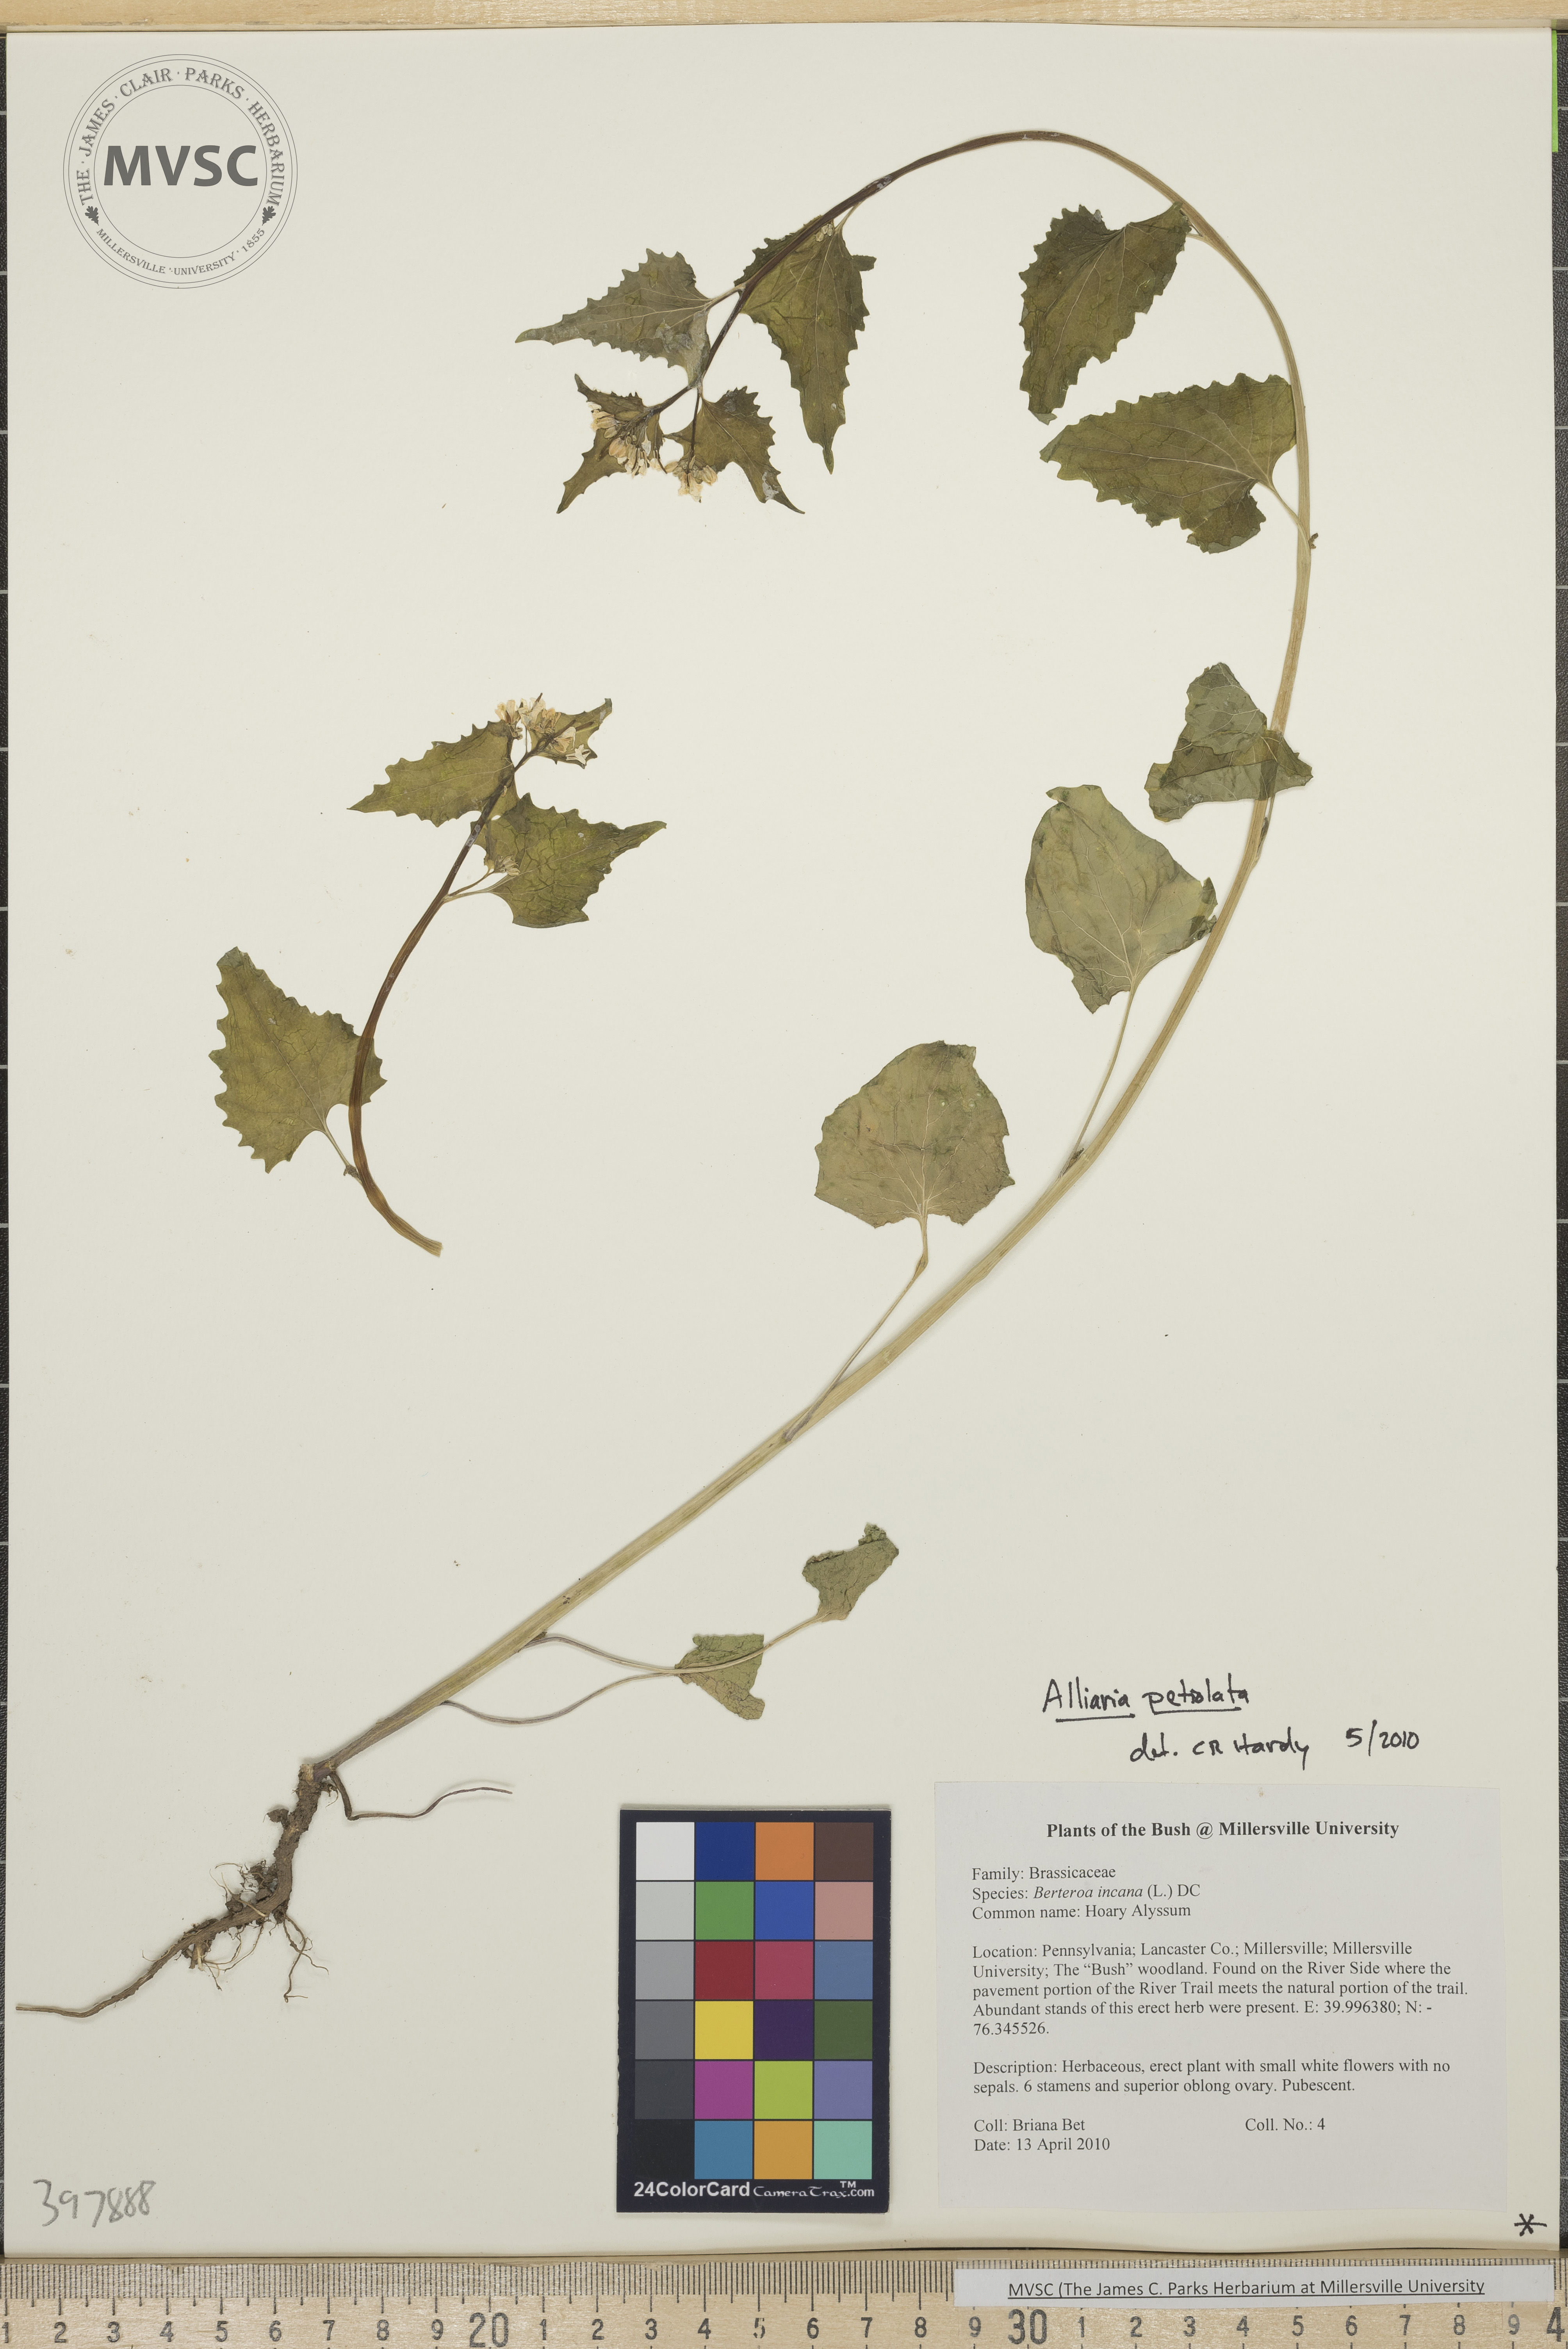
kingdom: Plantae
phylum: Tracheophyta
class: Magnoliopsida
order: Brassicales
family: Brassicaceae
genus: Alliaria
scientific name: Alliaria petiolata
